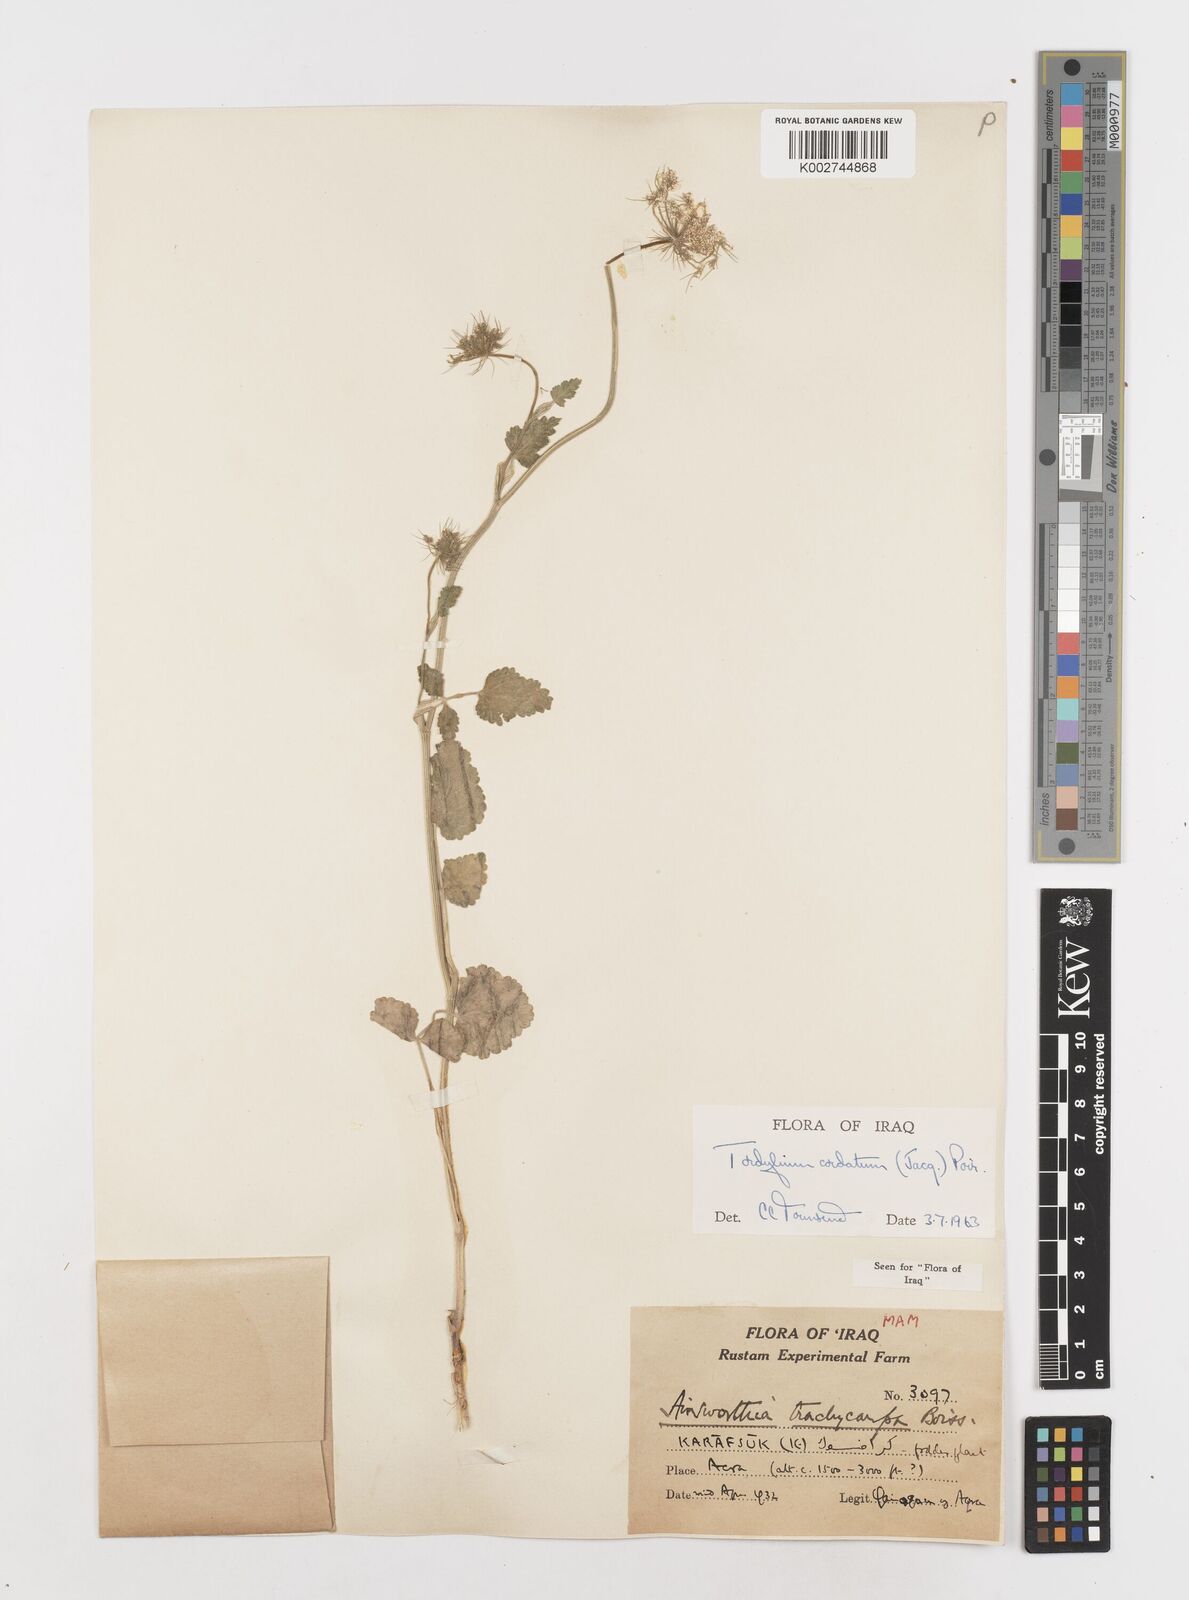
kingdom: Plantae
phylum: Tracheophyta
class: Magnoliopsida
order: Apiales
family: Apiaceae
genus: Ainsworthia
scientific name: Ainsworthia trachycarpa
